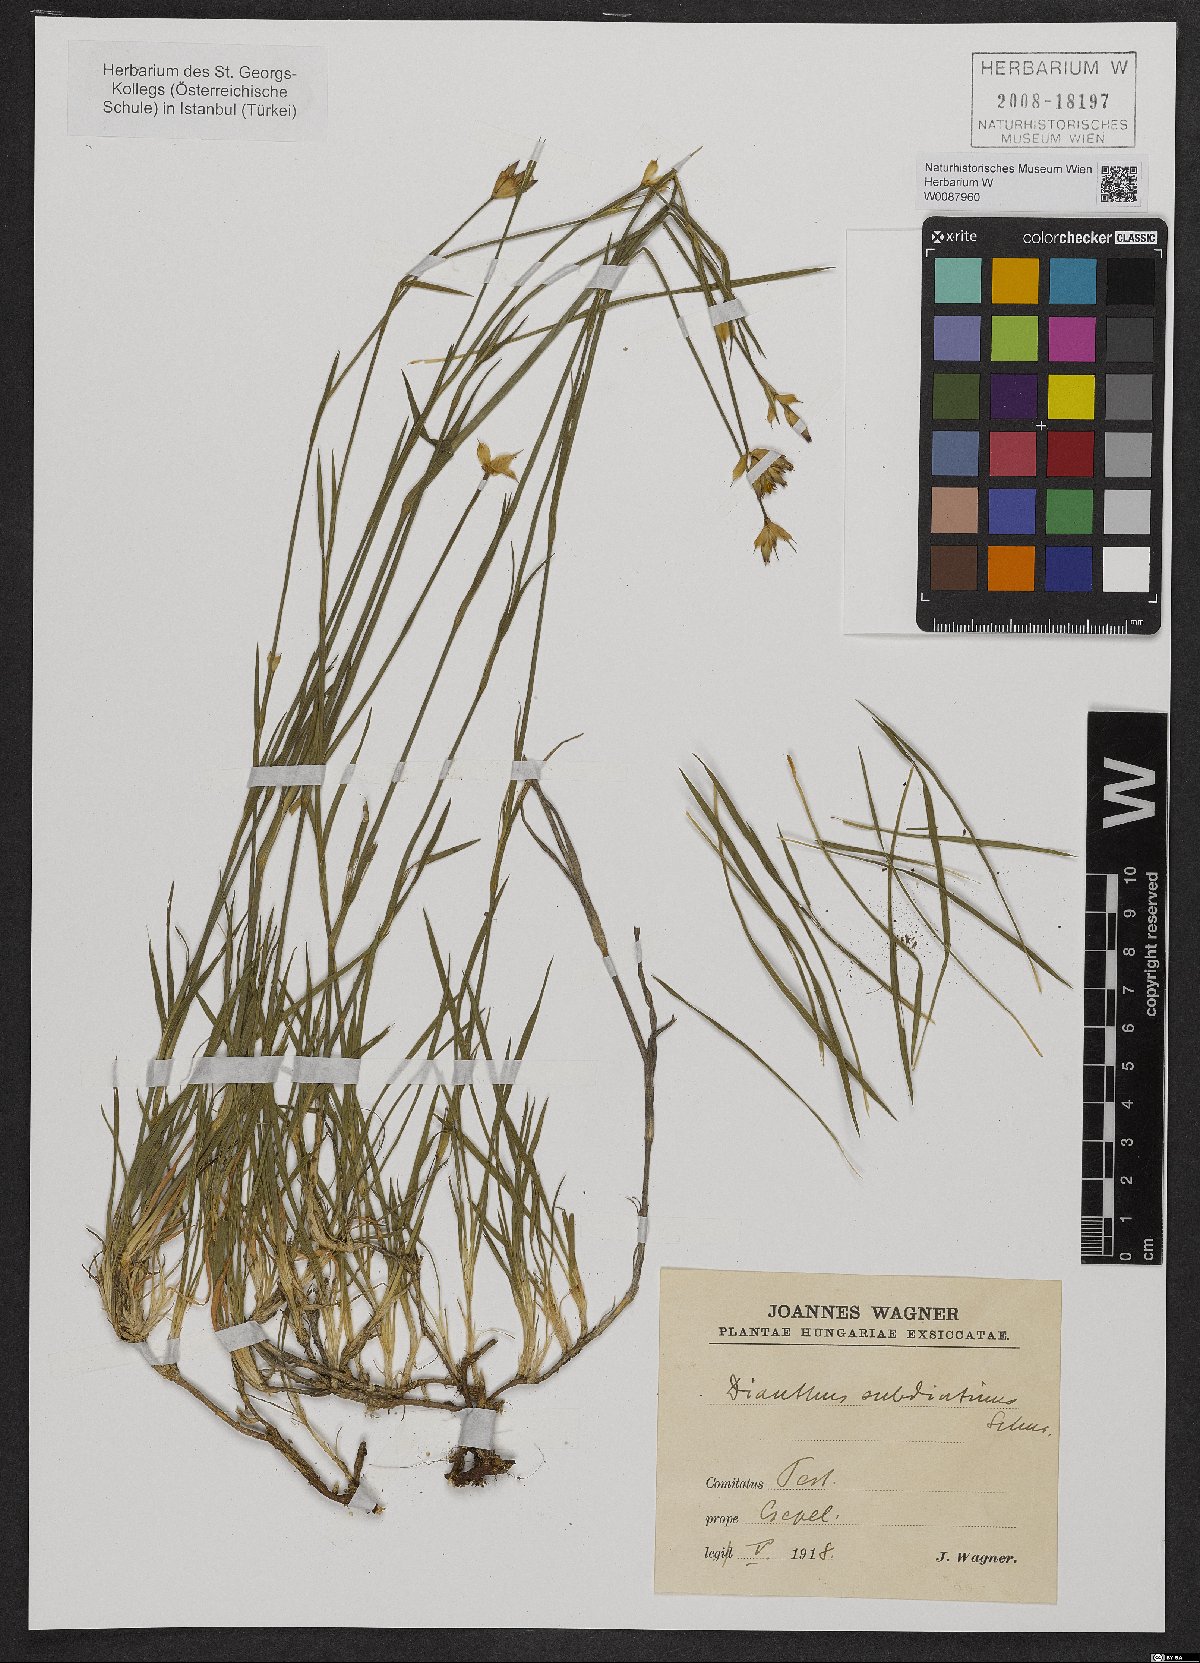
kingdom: Plantae
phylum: Tracheophyta
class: Magnoliopsida
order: Caryophyllales
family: Caryophyllaceae
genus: Dianthus
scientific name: Dianthus carthusianorum
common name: Carthusian pink
